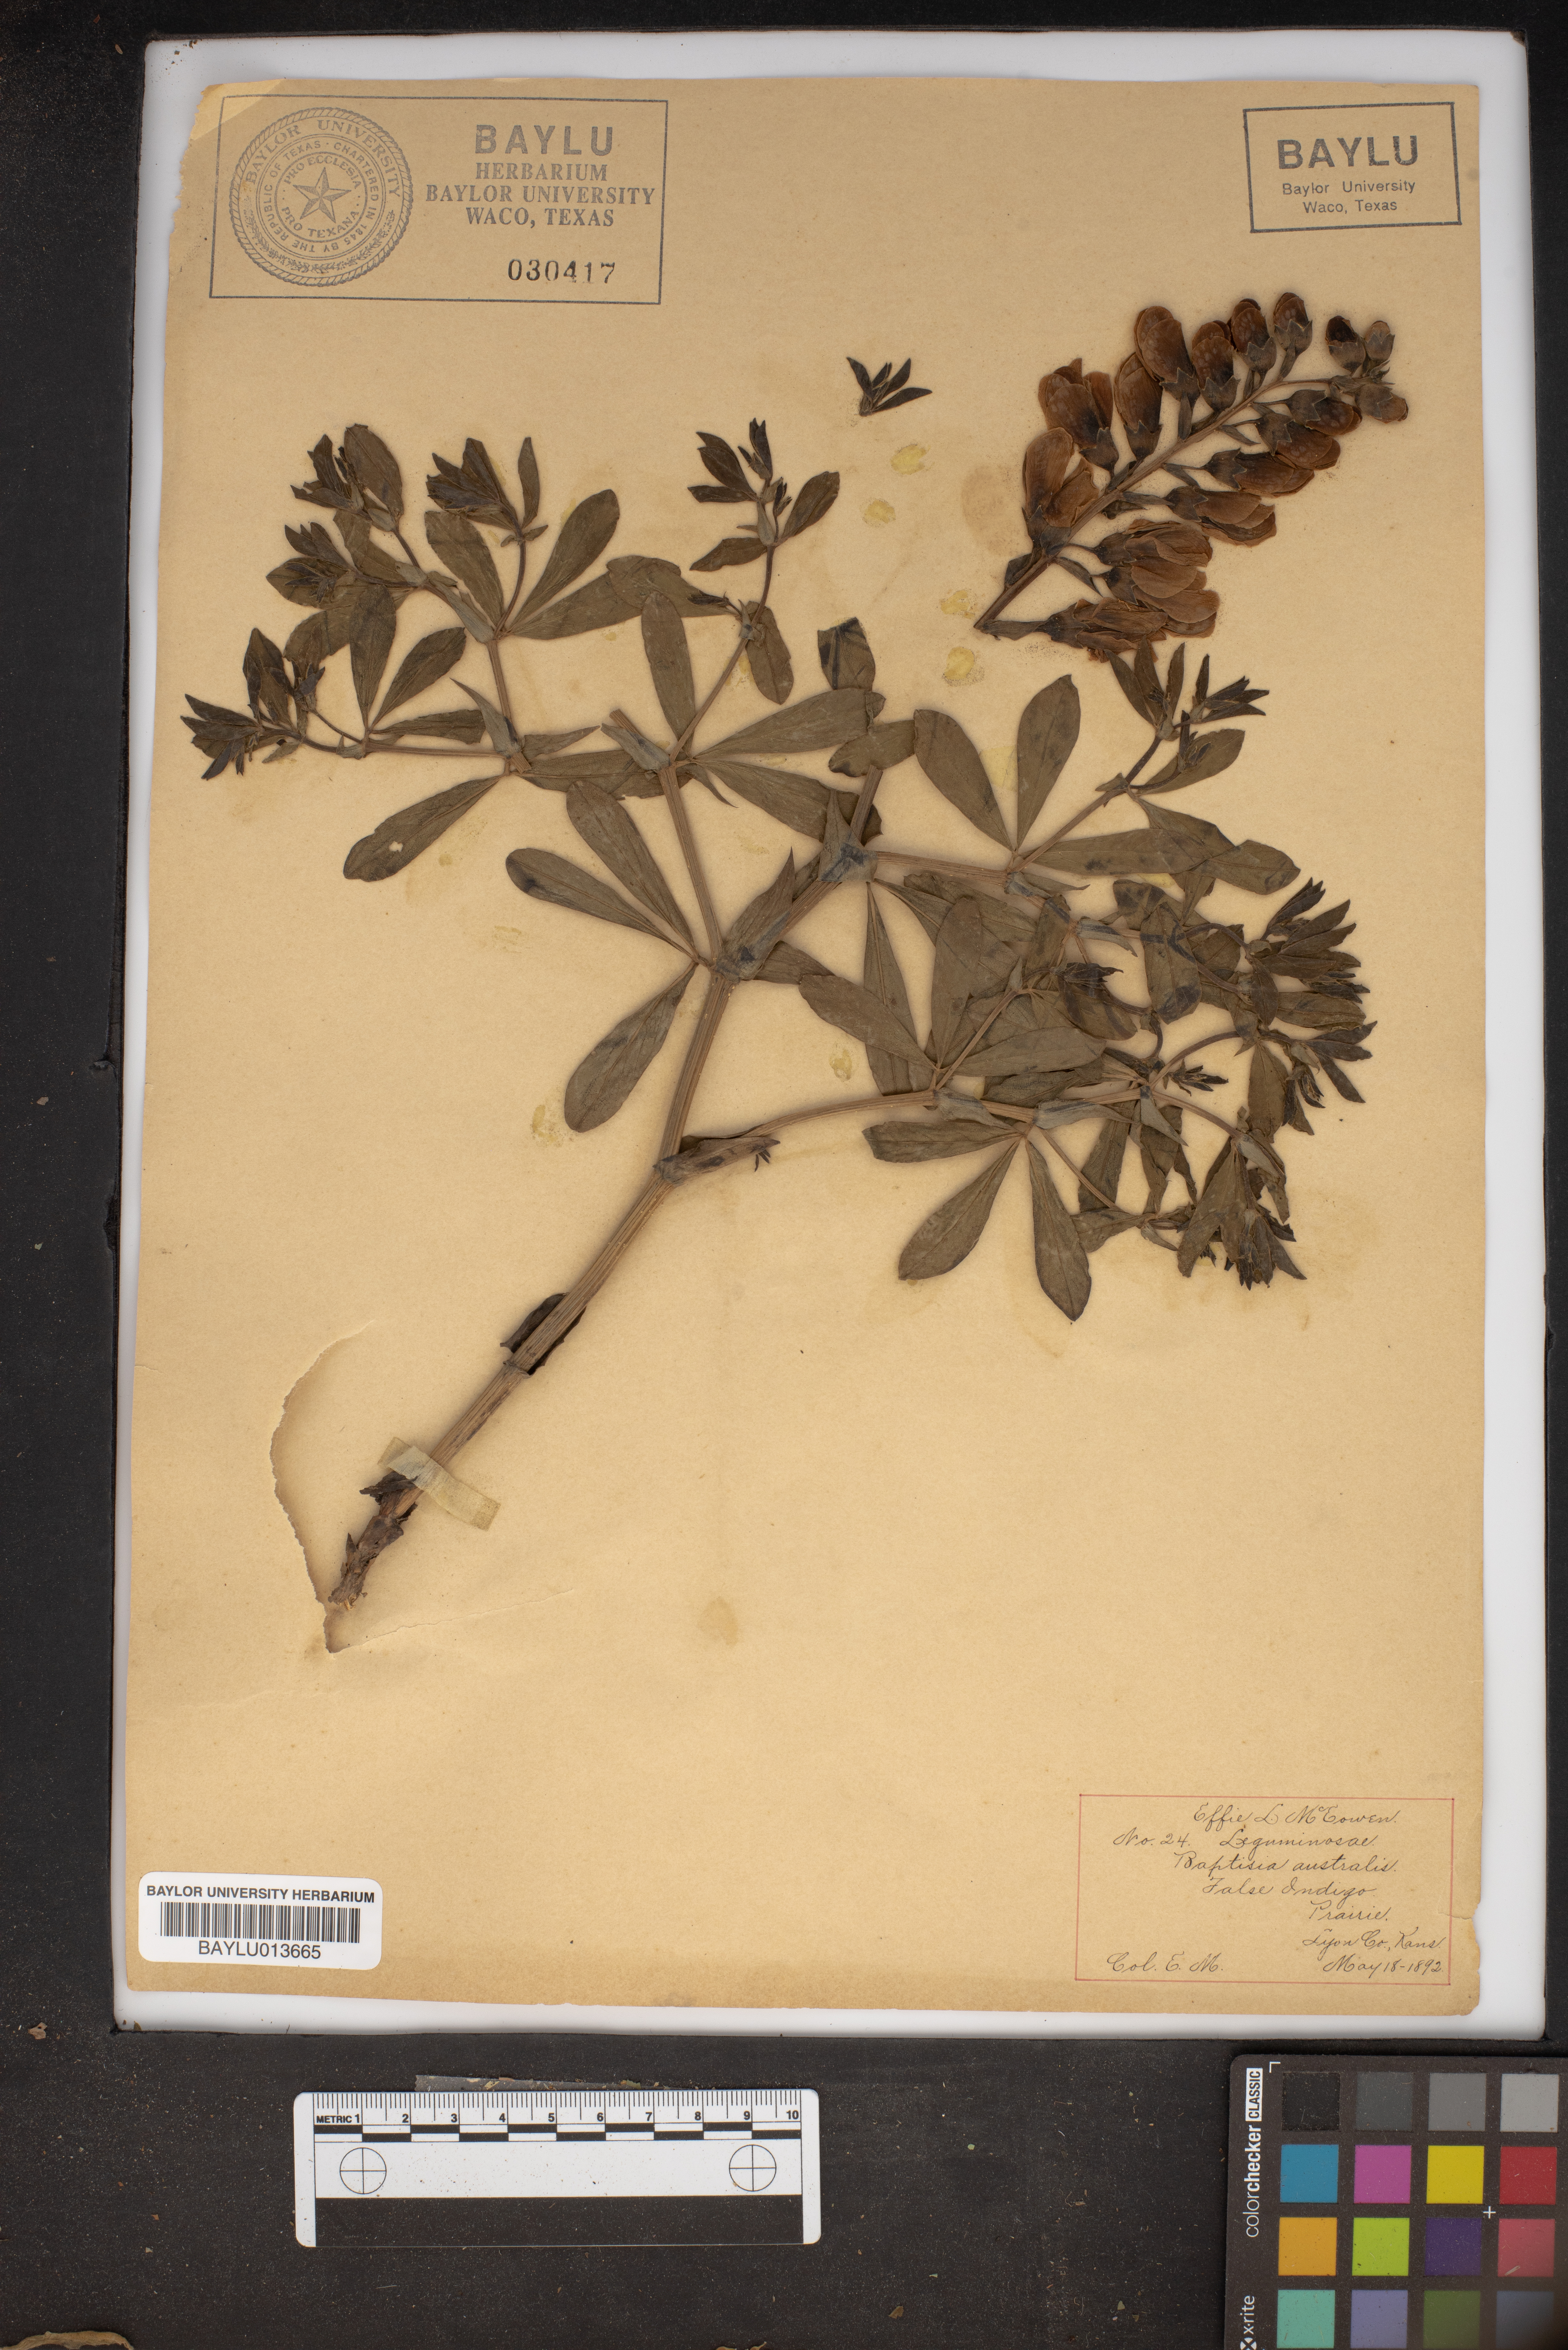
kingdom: Plantae
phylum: Tracheophyta
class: Magnoliopsida
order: Fabales
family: Fabaceae
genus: Baptisia
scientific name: Baptisia australis
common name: Blue false indigo
